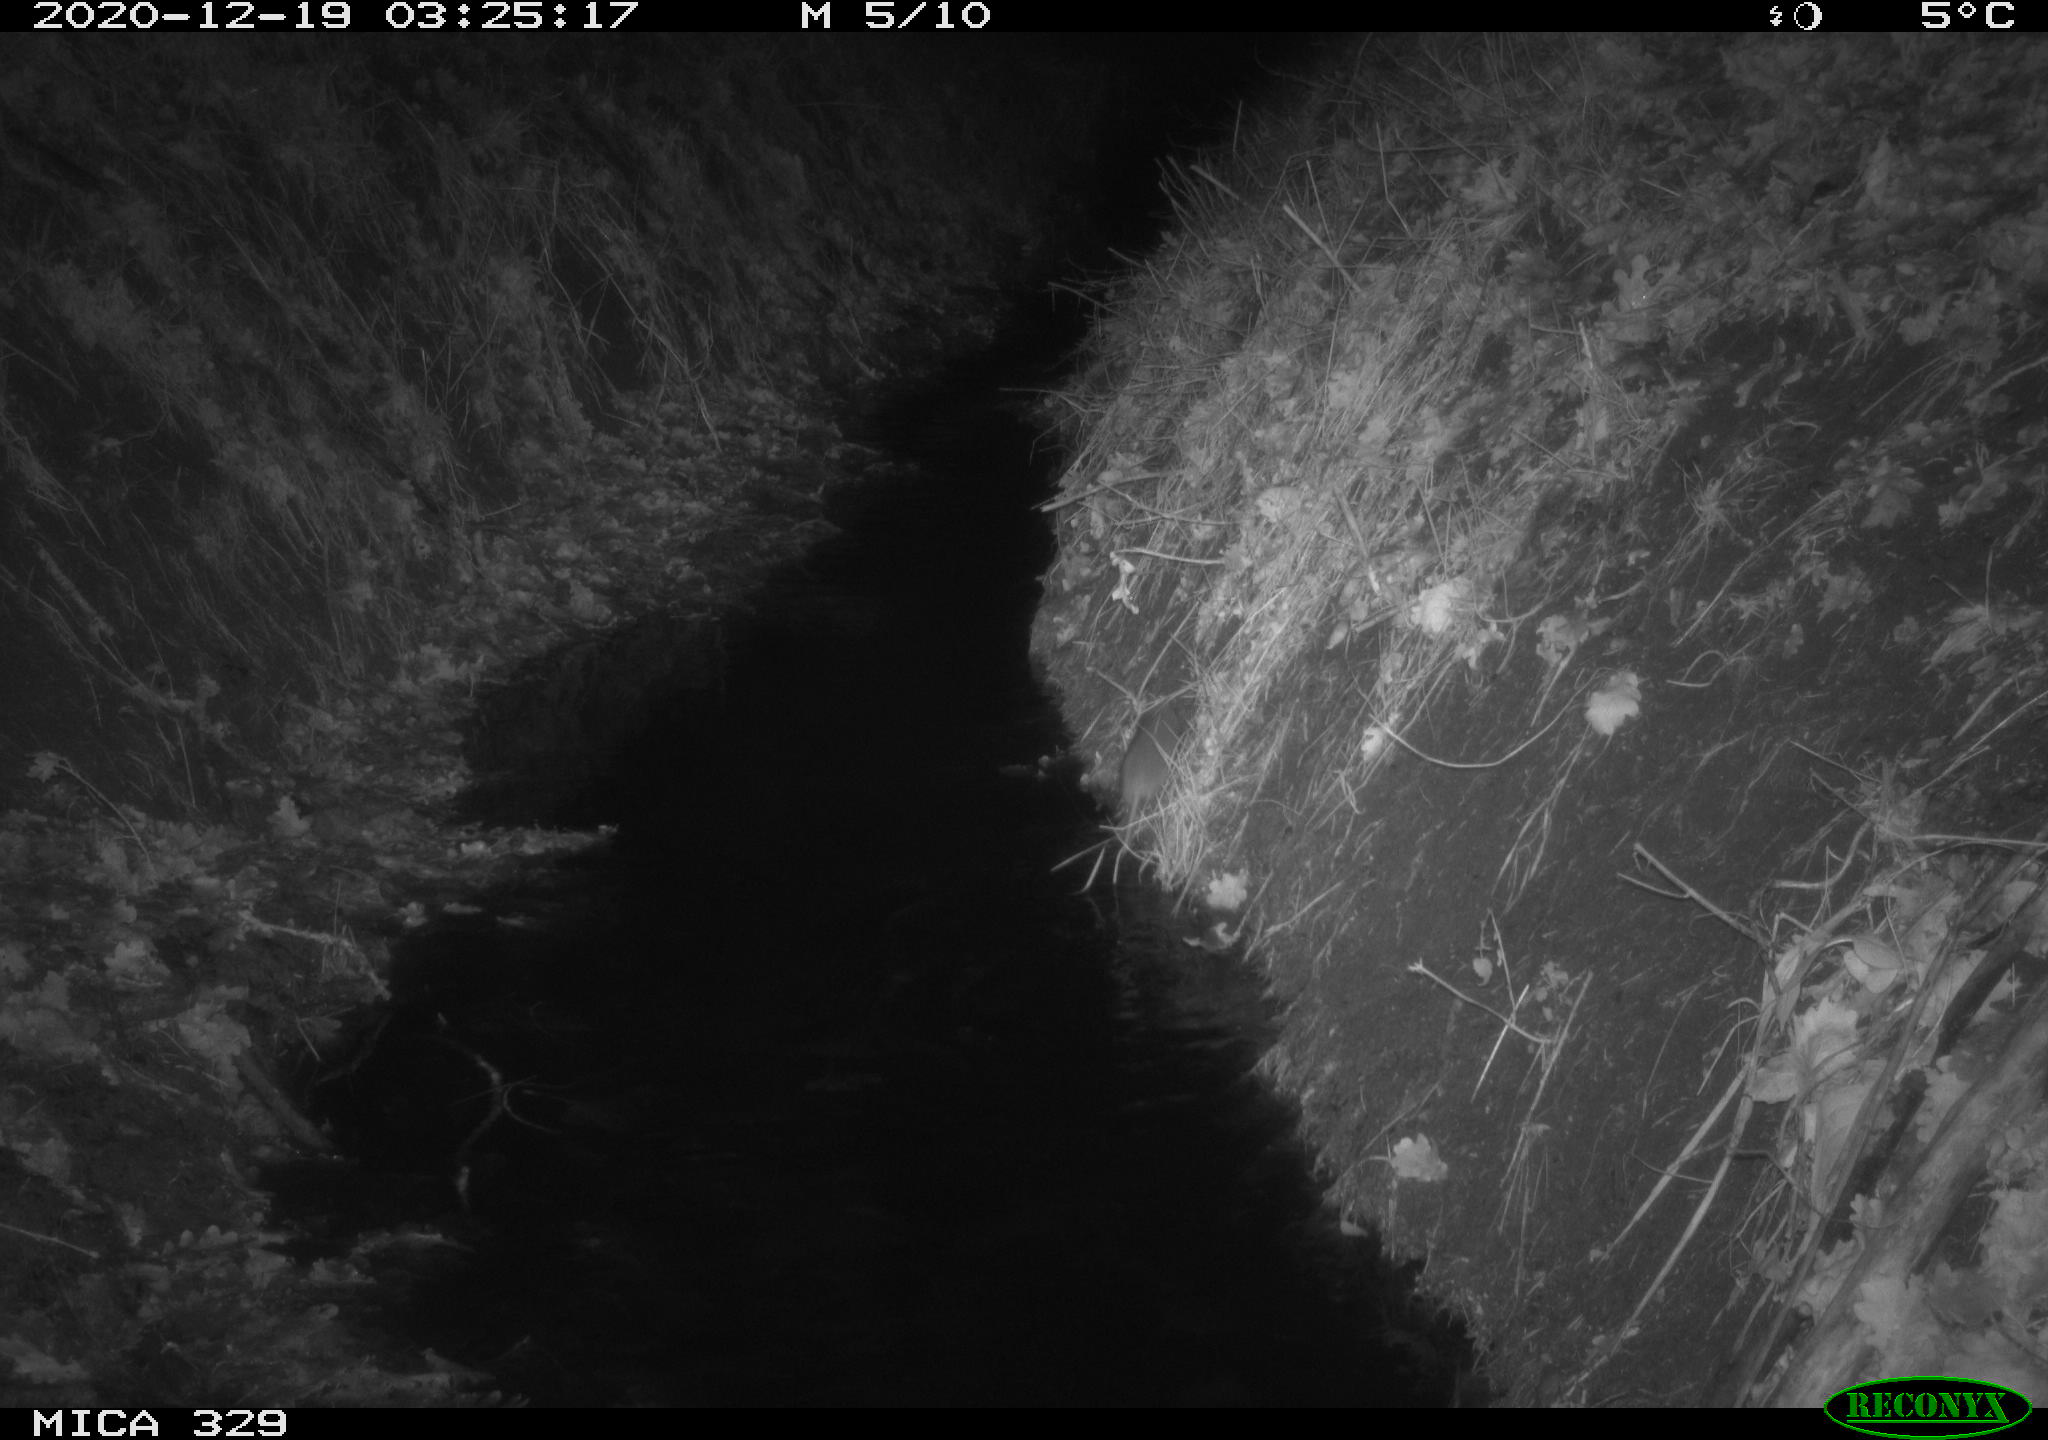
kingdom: Animalia
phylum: Chordata
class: Mammalia
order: Rodentia
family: Muridae
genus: Rattus
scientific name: Rattus norvegicus
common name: Brown rat
